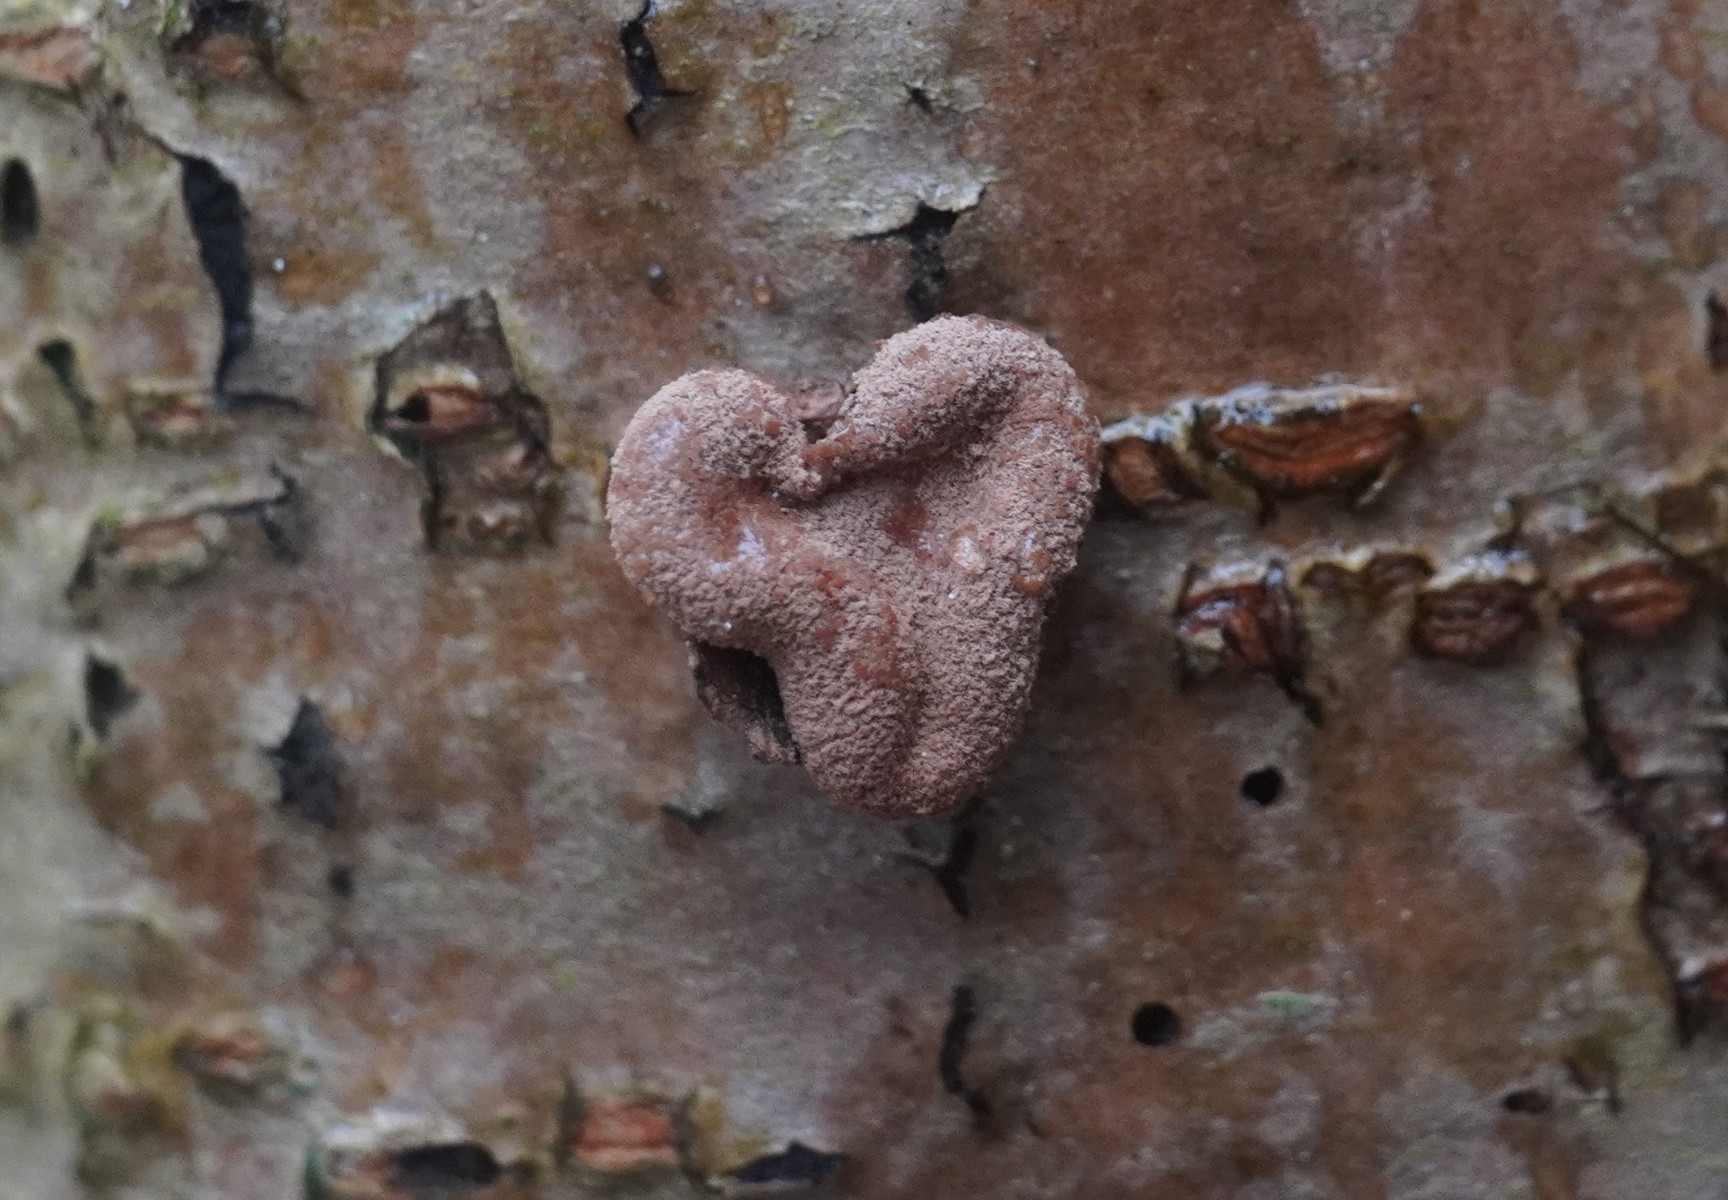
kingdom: Fungi
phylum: Ascomycota
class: Leotiomycetes
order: Helotiales
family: Cenangiaceae
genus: Encoelia
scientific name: Encoelia furfuracea
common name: hassel-læderskive
